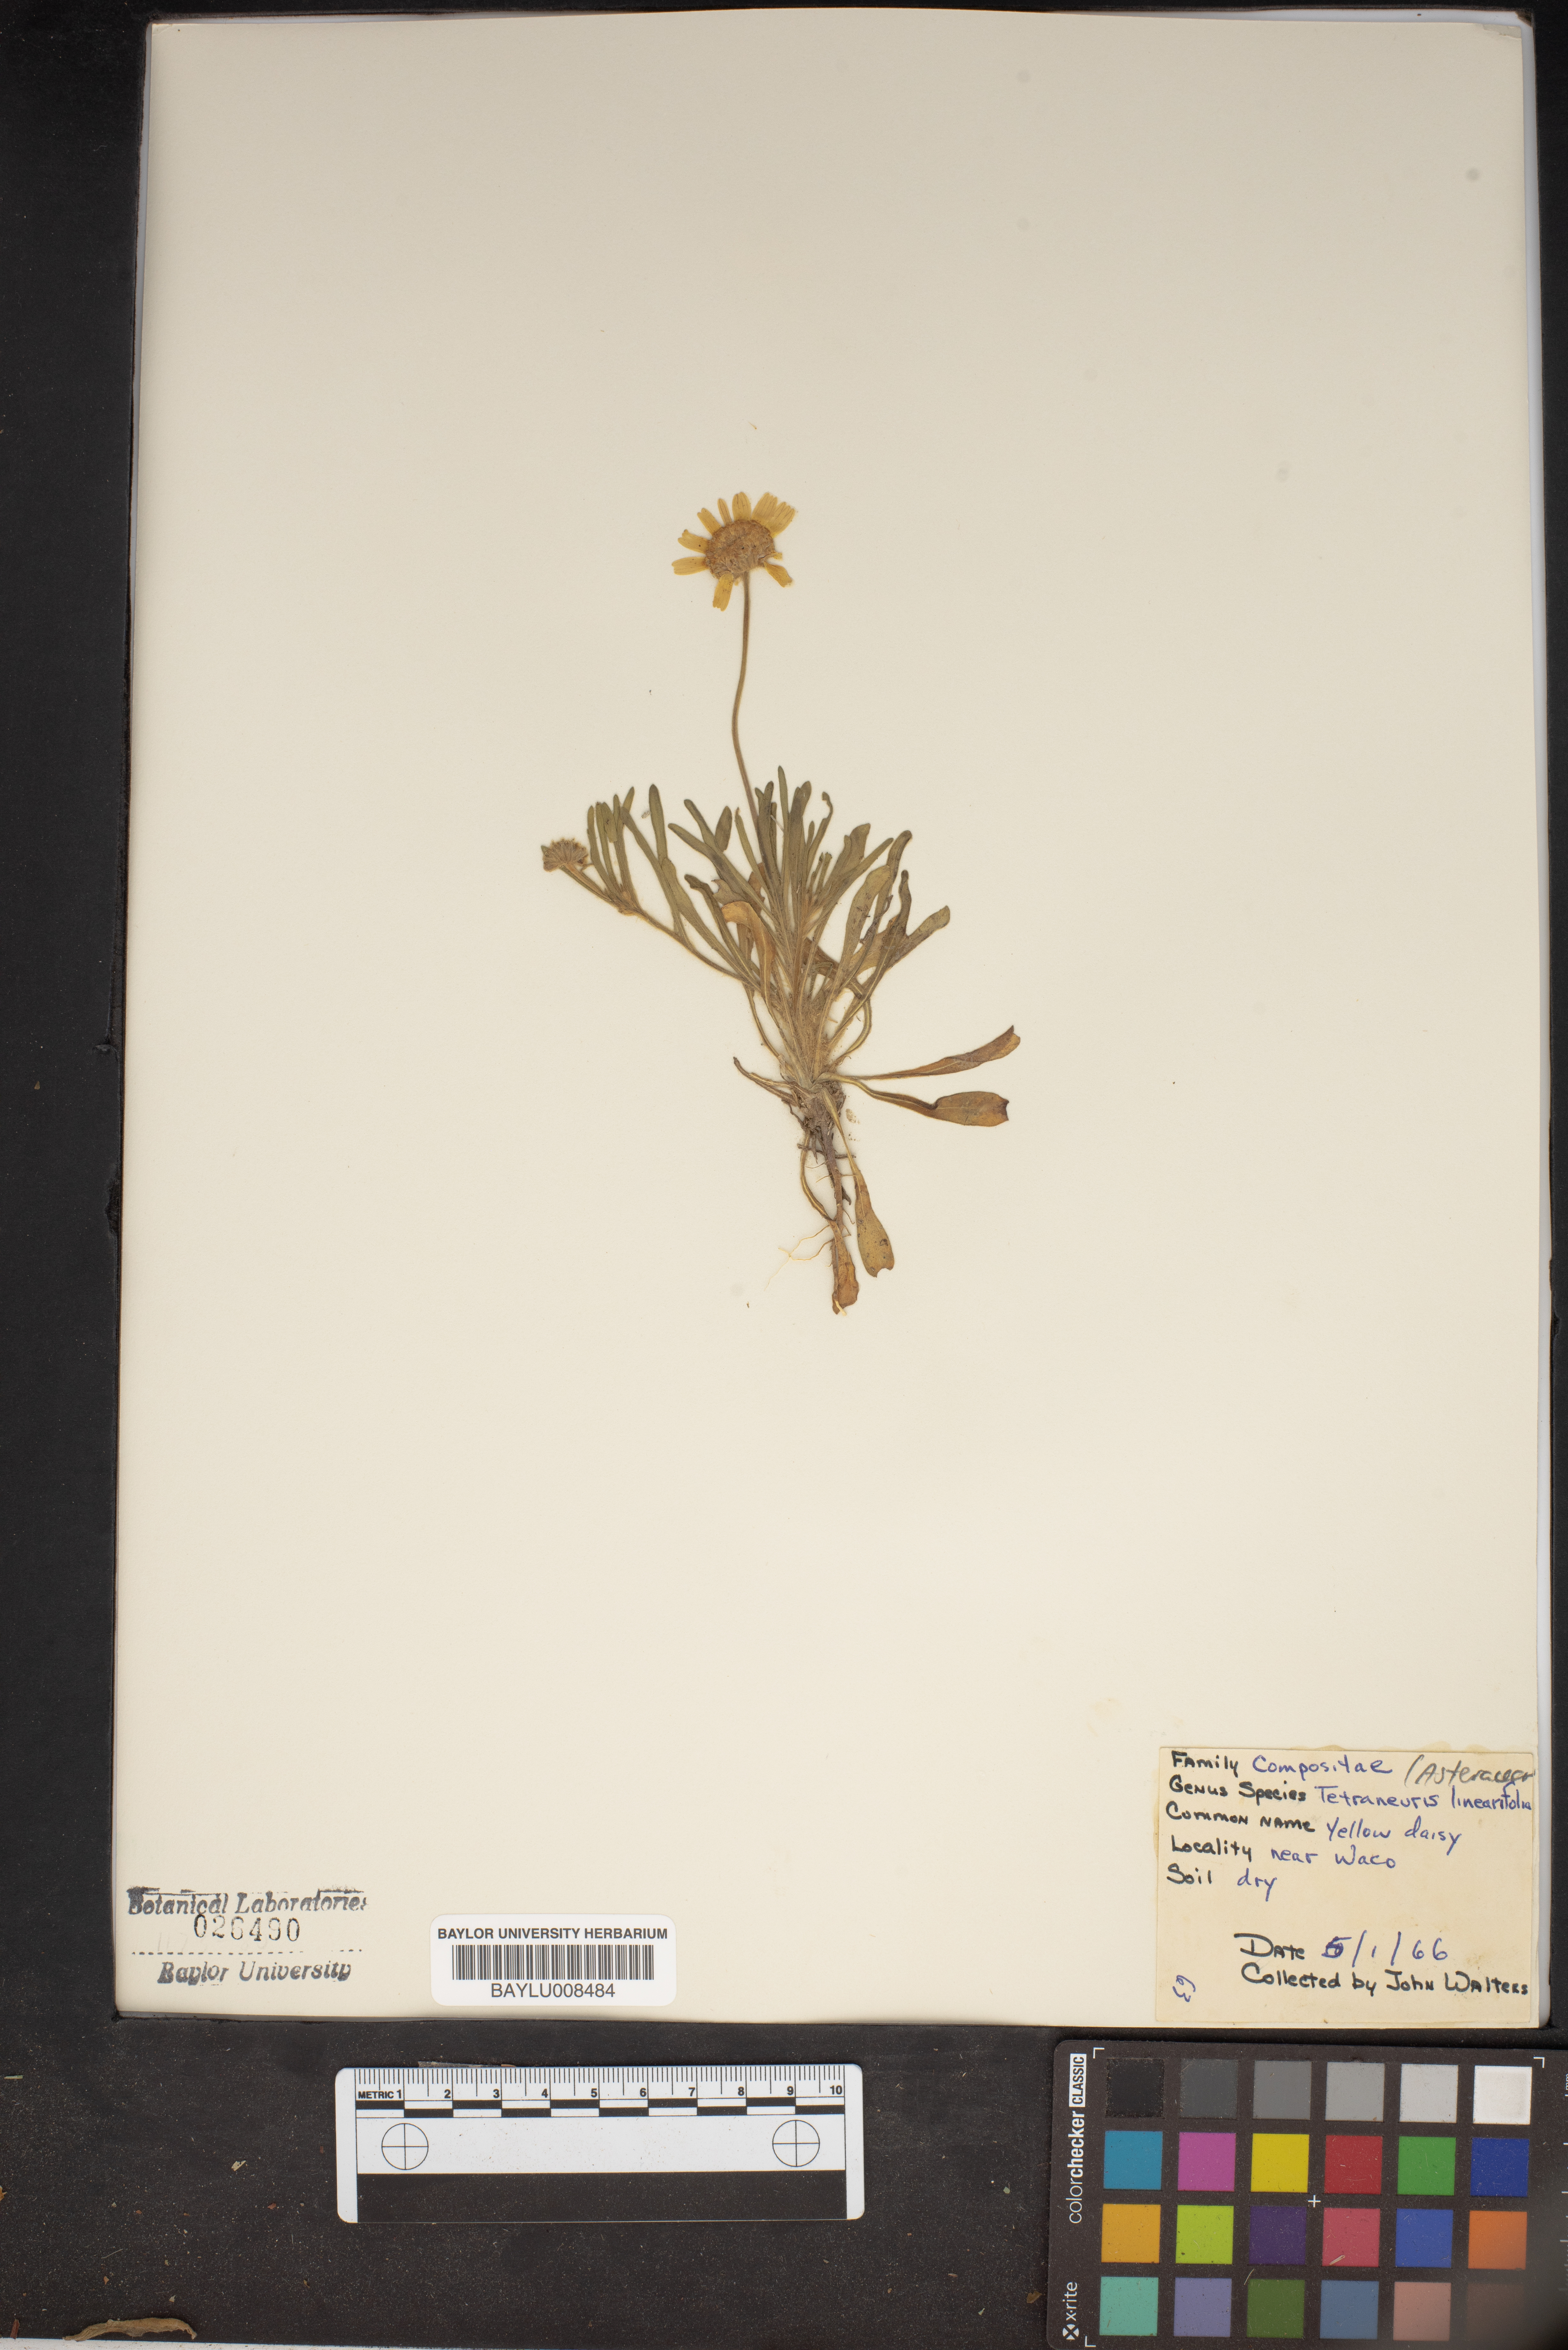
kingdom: Plantae
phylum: Tracheophyta
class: Magnoliopsida
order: Asterales
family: Asteraceae
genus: Tetraneuris
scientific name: Tetraneuris linearifolia
